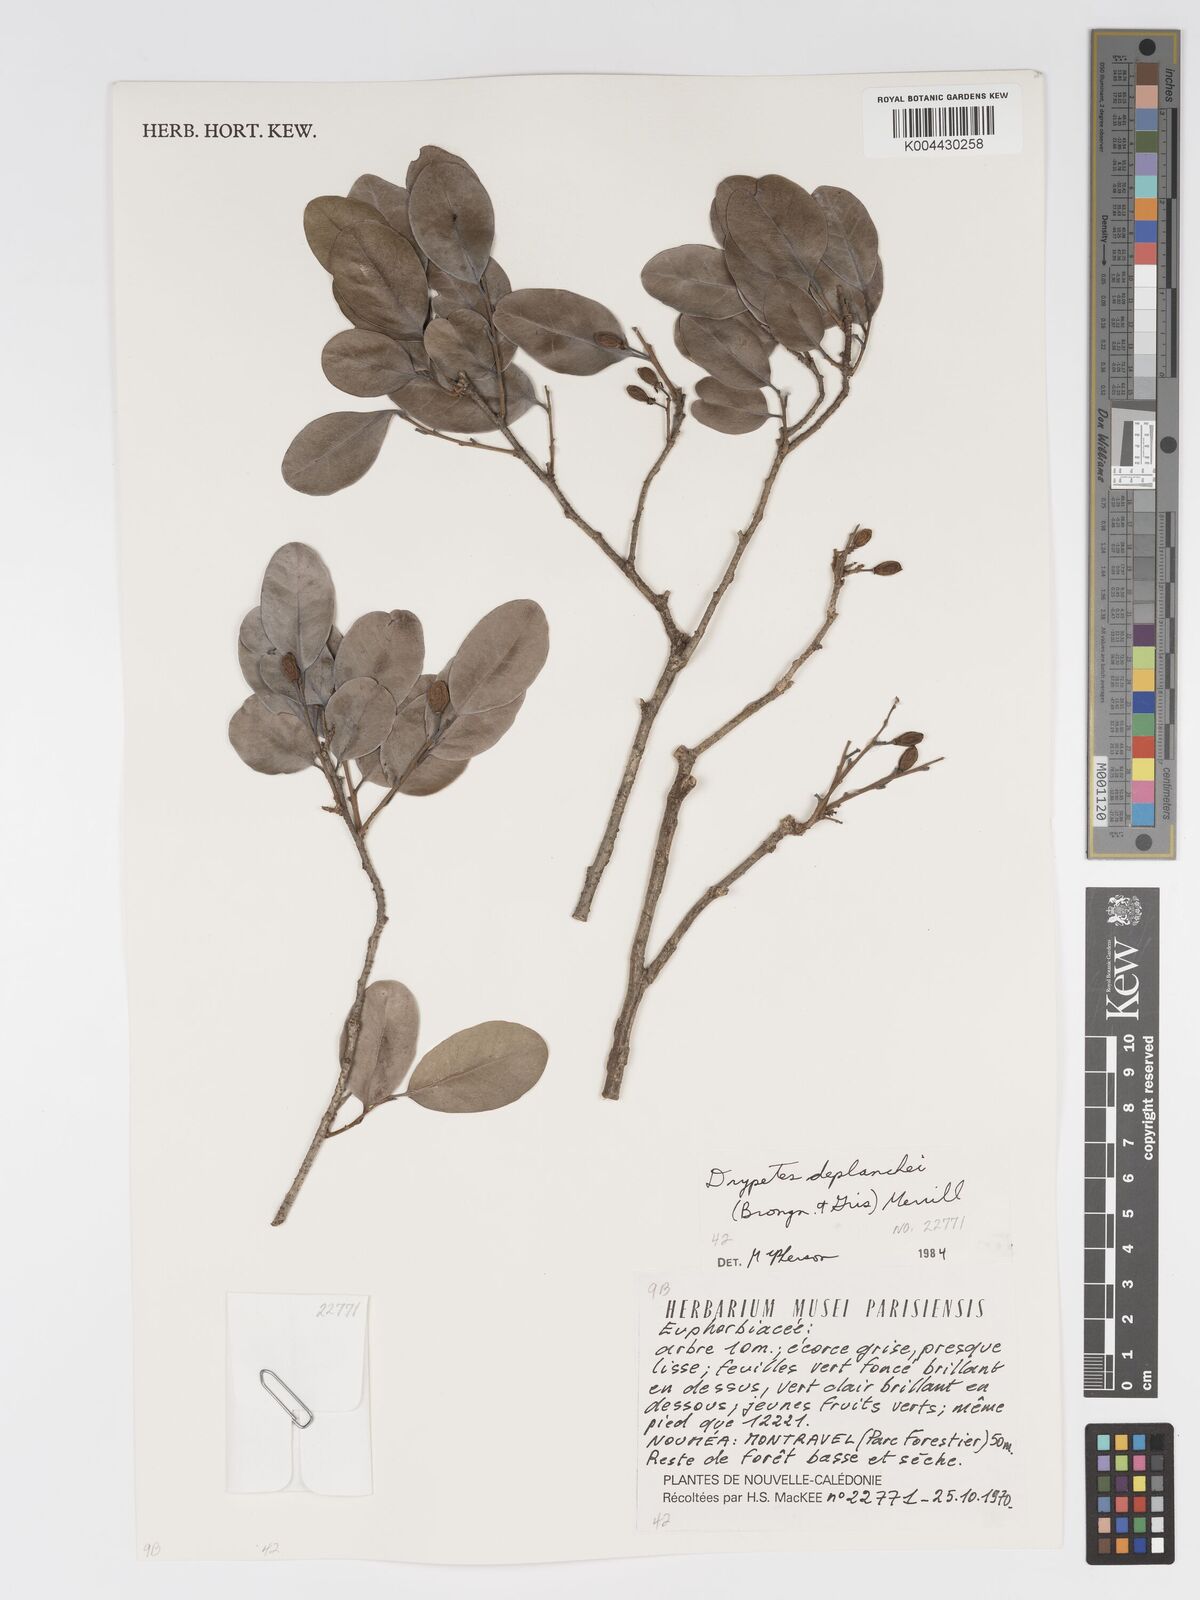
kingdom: Plantae
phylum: Tracheophyta
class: Magnoliopsida
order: Malpighiales
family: Putranjivaceae
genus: Drypetes
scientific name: Drypetes deplanchei
